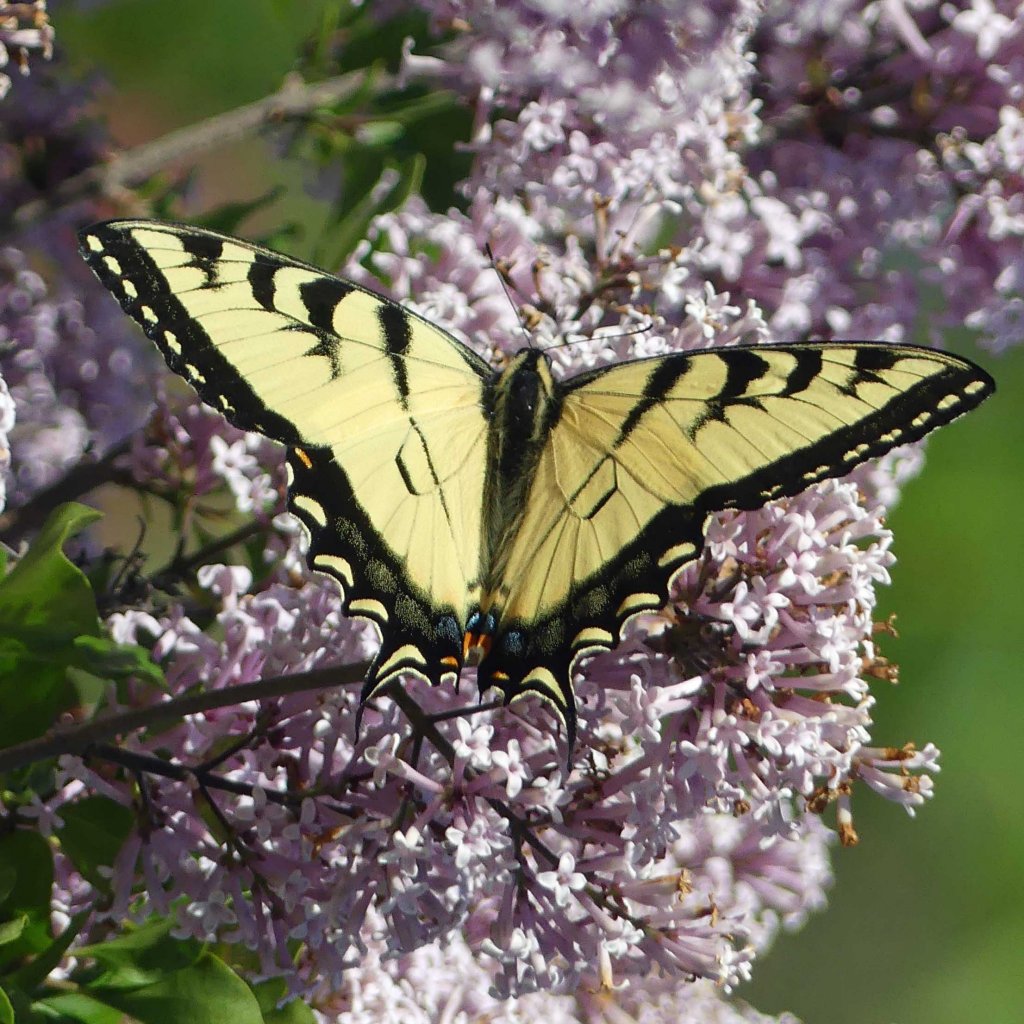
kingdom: Animalia
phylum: Arthropoda
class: Insecta
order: Lepidoptera
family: Papilionidae
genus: Pterourus
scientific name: Pterourus glaucus
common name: Eastern Tiger Swallowtail
